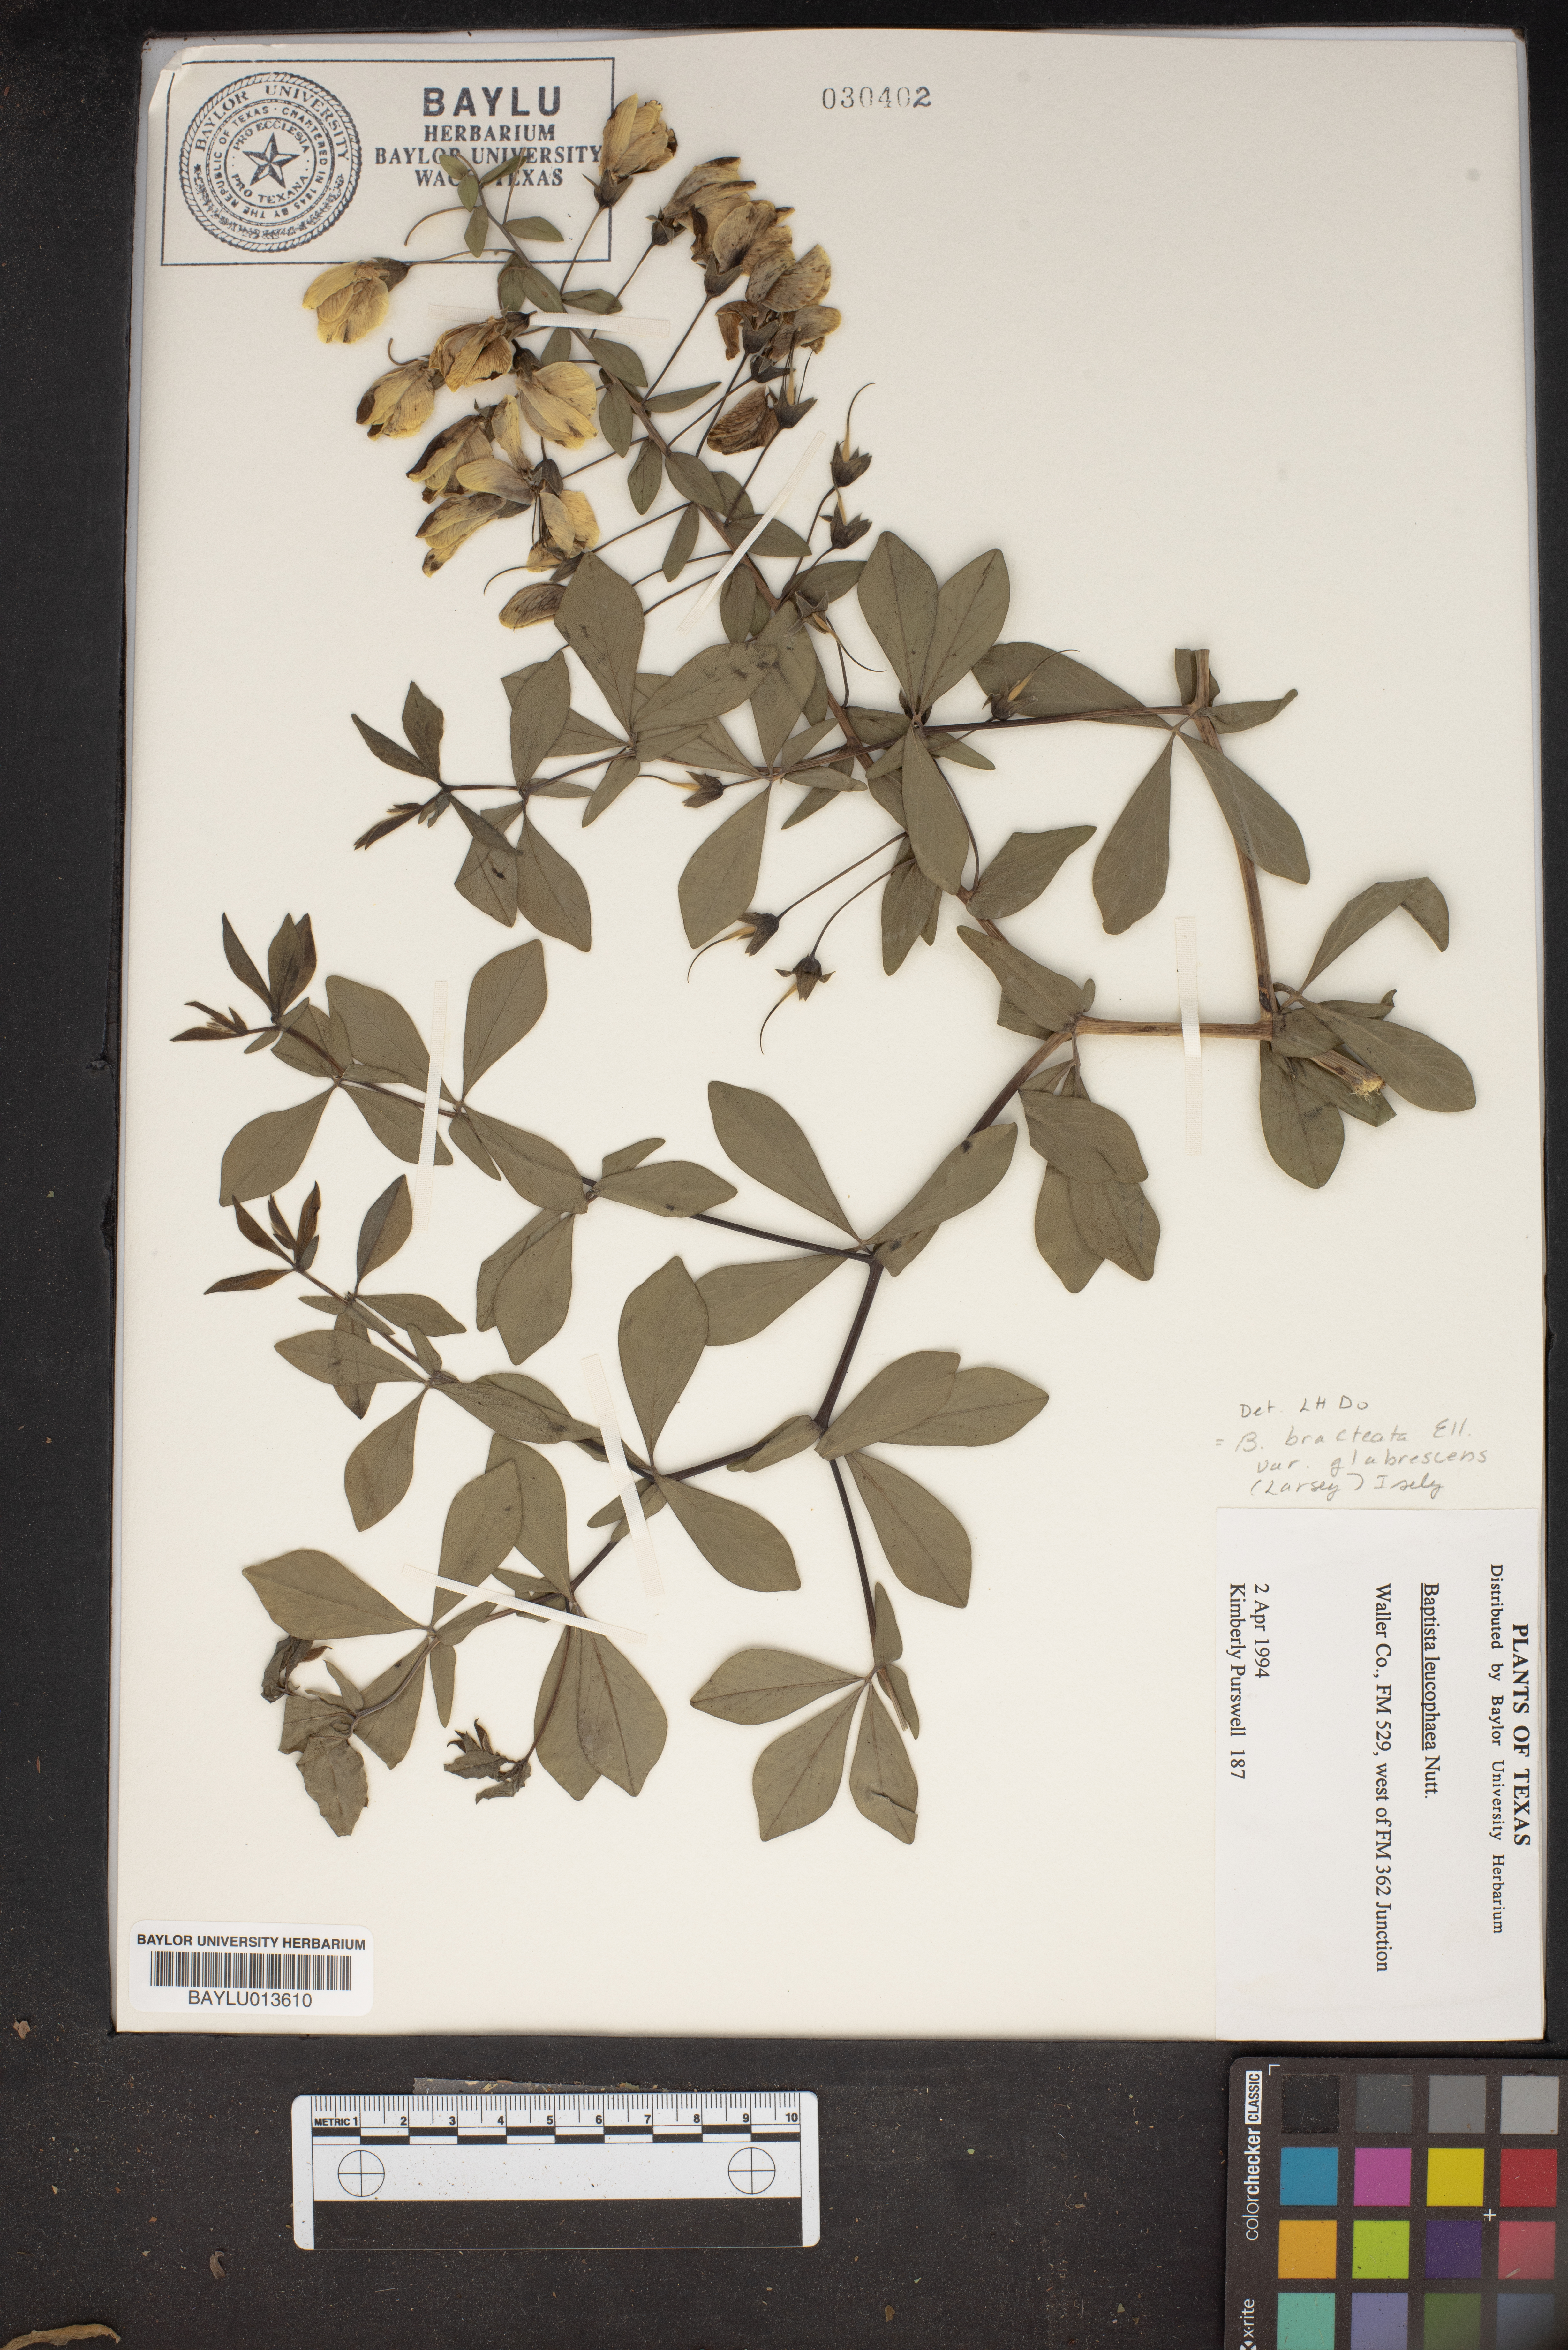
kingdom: Plantae
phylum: Tracheophyta
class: Magnoliopsida
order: Fabales
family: Fabaceae
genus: Baptisia
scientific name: Baptisia bracteata
